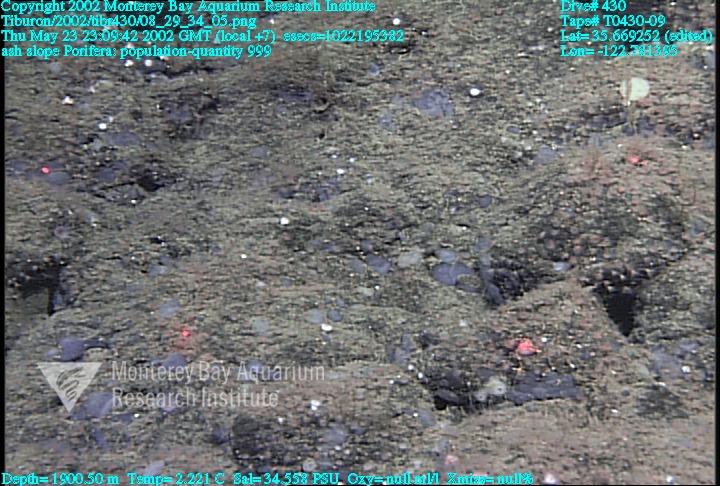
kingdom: Animalia
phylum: Porifera
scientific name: Porifera
